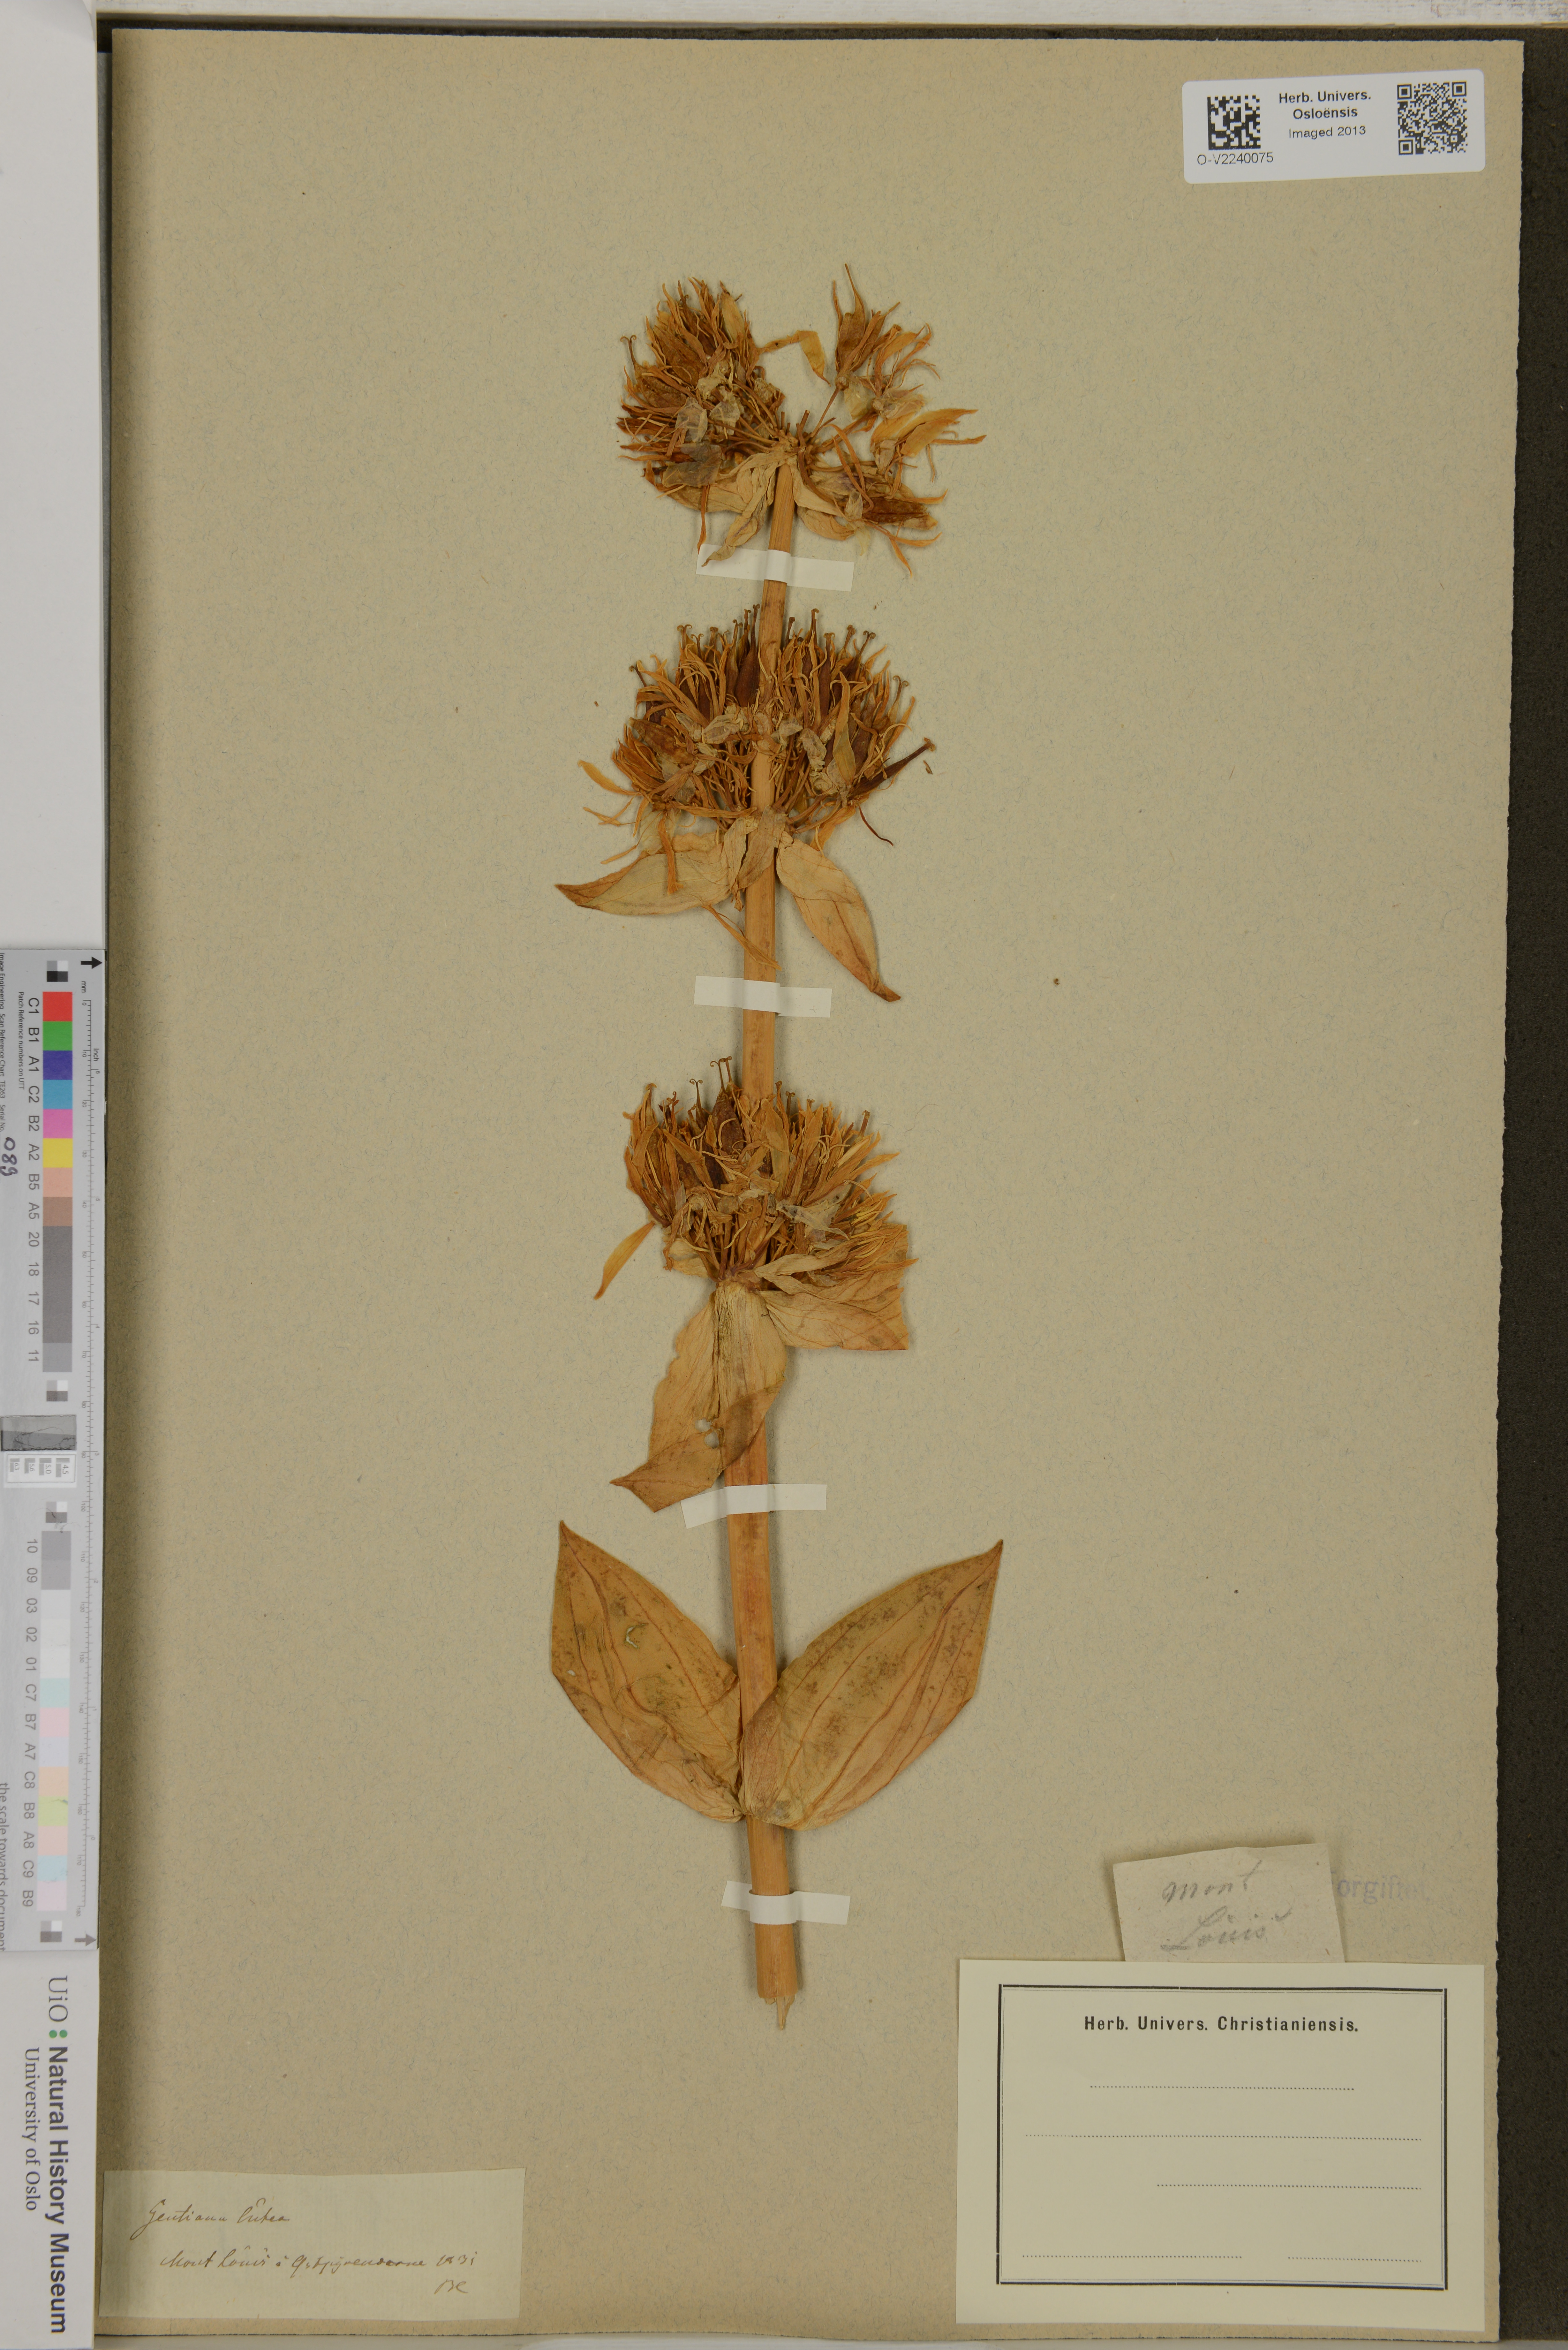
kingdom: Plantae
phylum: Tracheophyta
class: Magnoliopsida
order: Gentianales
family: Gentianaceae
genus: Gentiana
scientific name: Gentiana lutea
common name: Great yellow gentian
